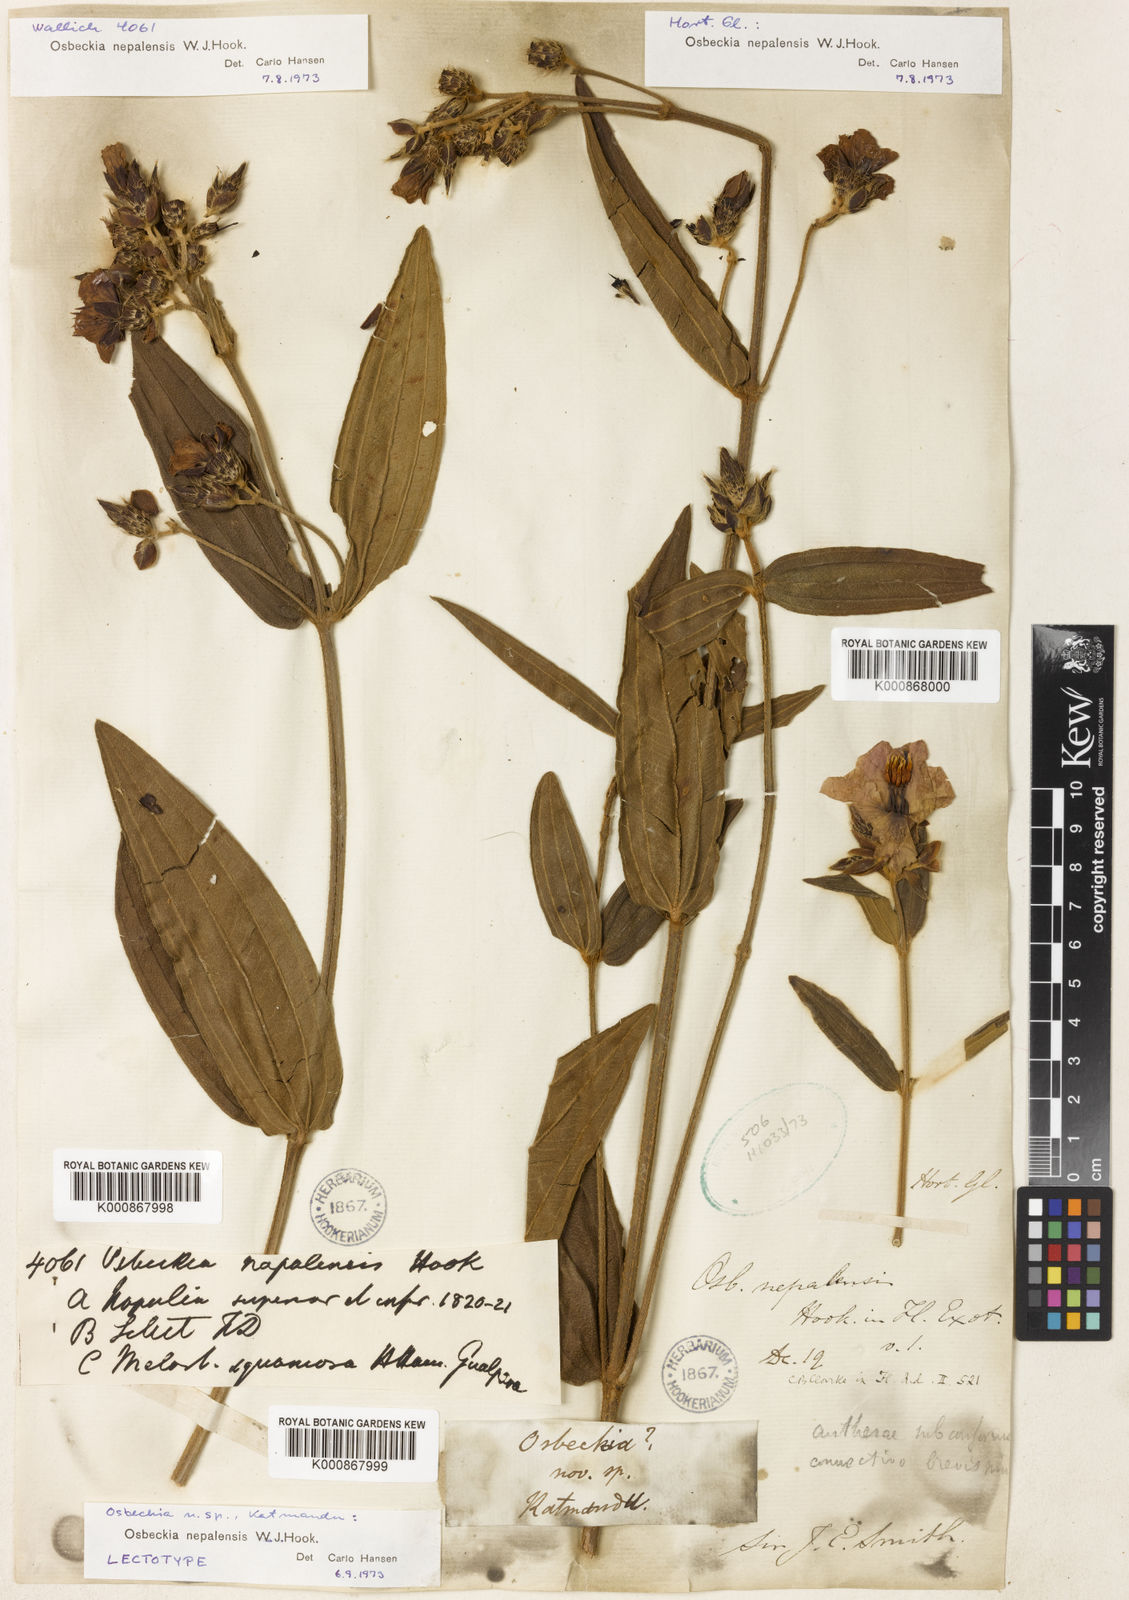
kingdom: Plantae
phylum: Tracheophyta
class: Magnoliopsida
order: Myrtales
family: Melastomataceae
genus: Osbeckia
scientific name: Osbeckia nepalensis
